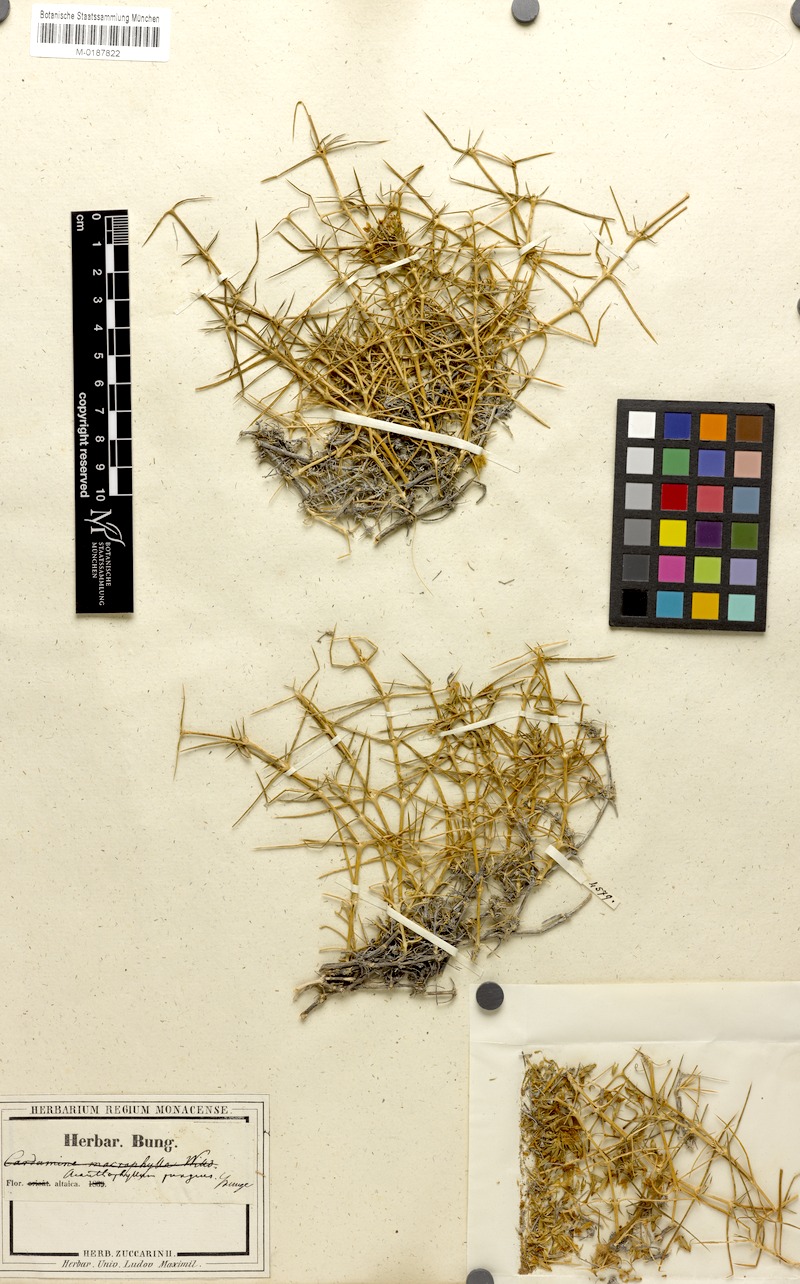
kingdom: Plantae
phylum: Tracheophyta
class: Magnoliopsida
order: Caryophyllales
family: Caryophyllaceae
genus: Acanthophyllum
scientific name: Acanthophyllum pungens
